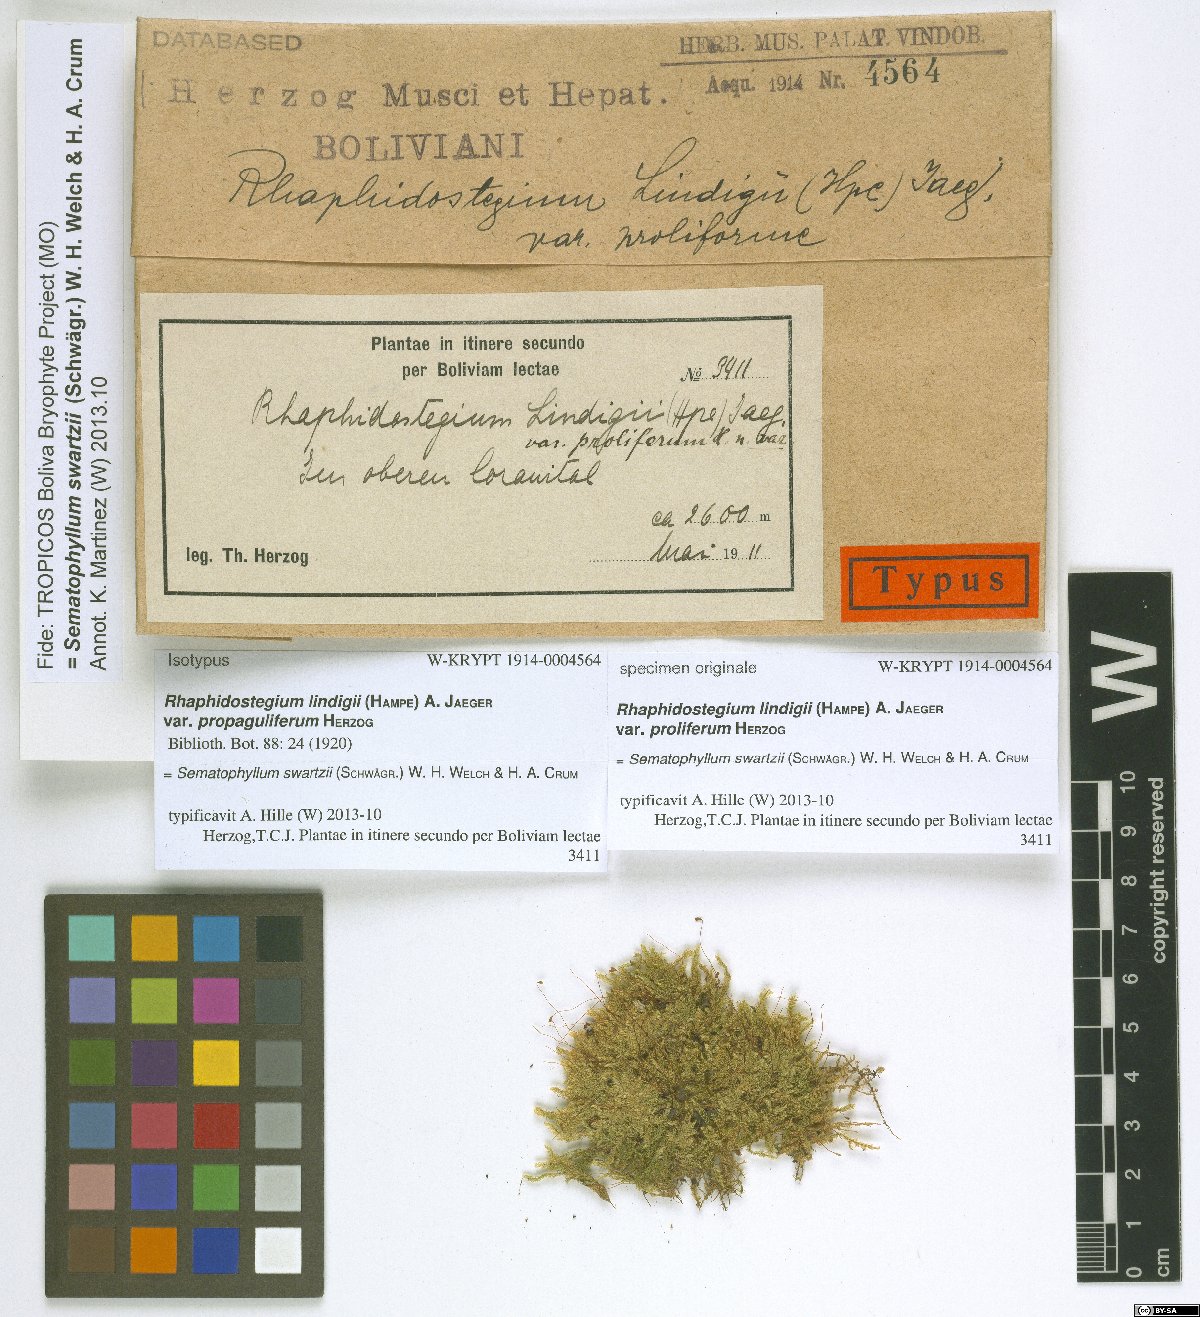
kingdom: Plantae
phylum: Bryophyta
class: Bryopsida
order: Hypnales
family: Sematophyllaceae
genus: Sematophyllum
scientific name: Sematophyllum swartzii
